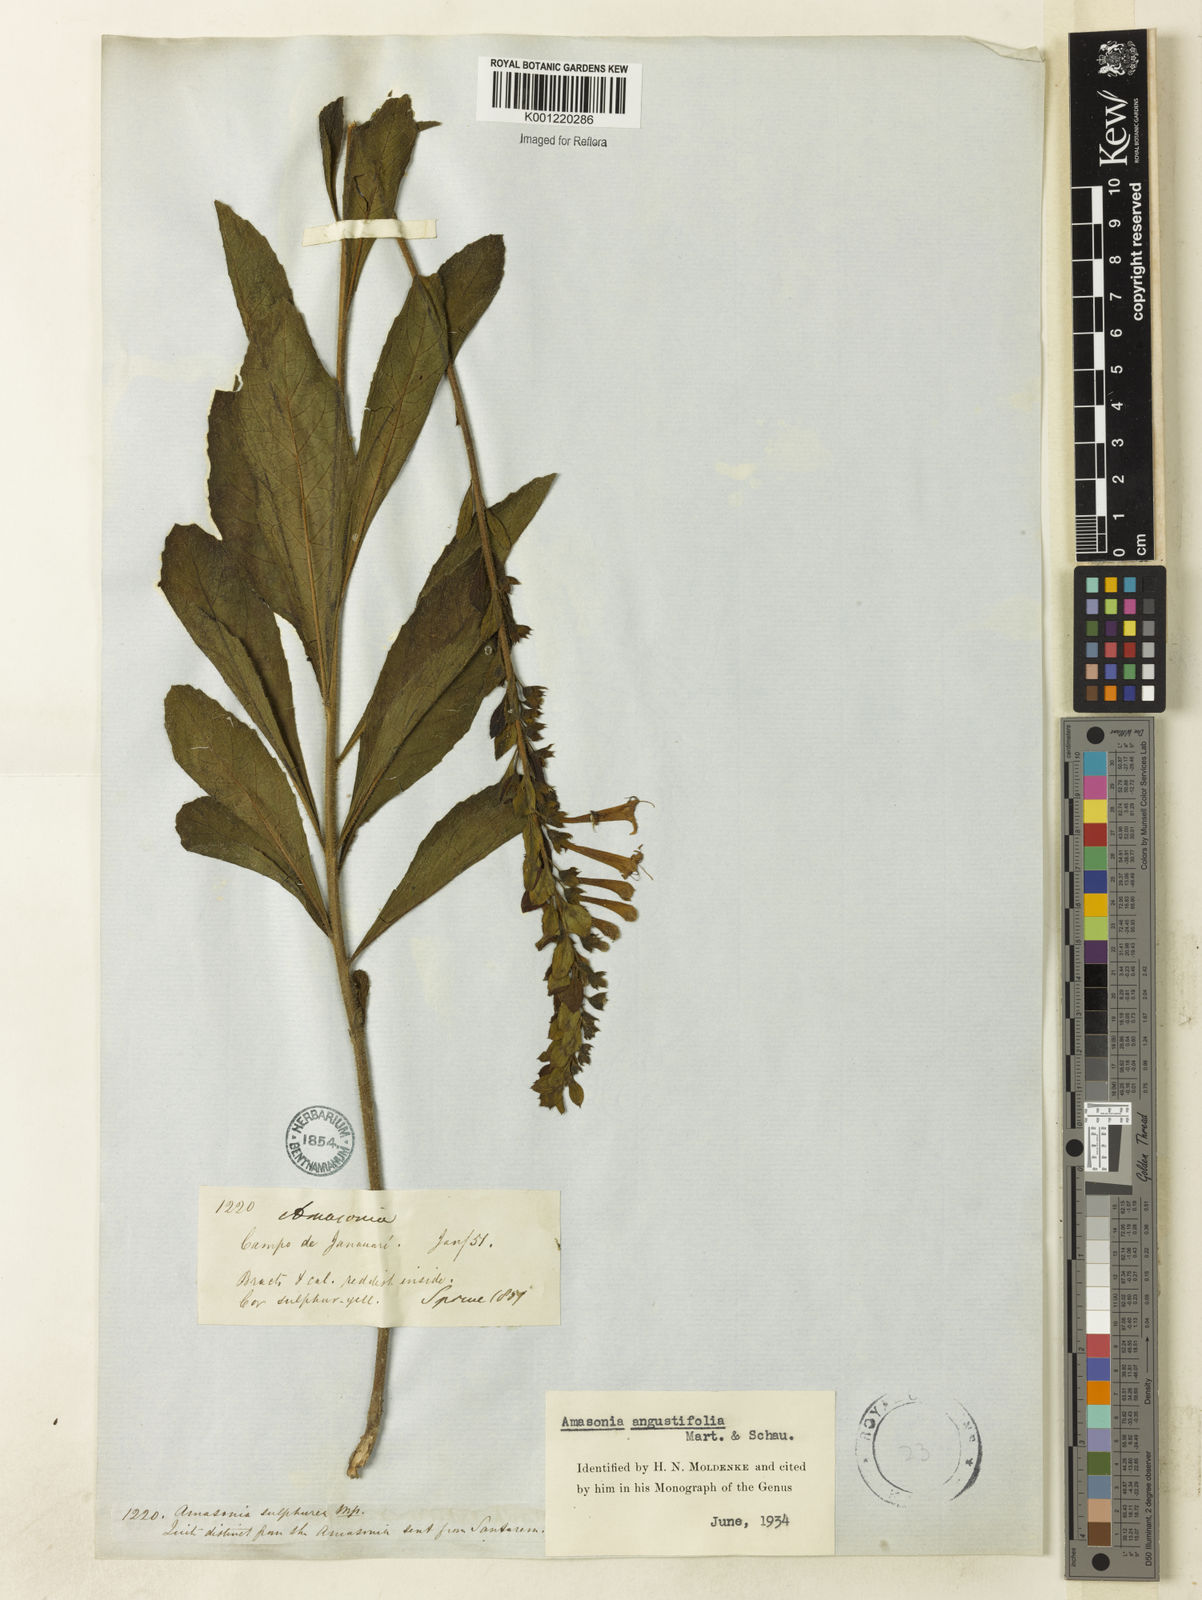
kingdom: Plantae
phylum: Tracheophyta
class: Magnoliopsida
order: Lamiales
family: Lamiaceae
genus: Amasonia
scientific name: Amasonia angustifolia
